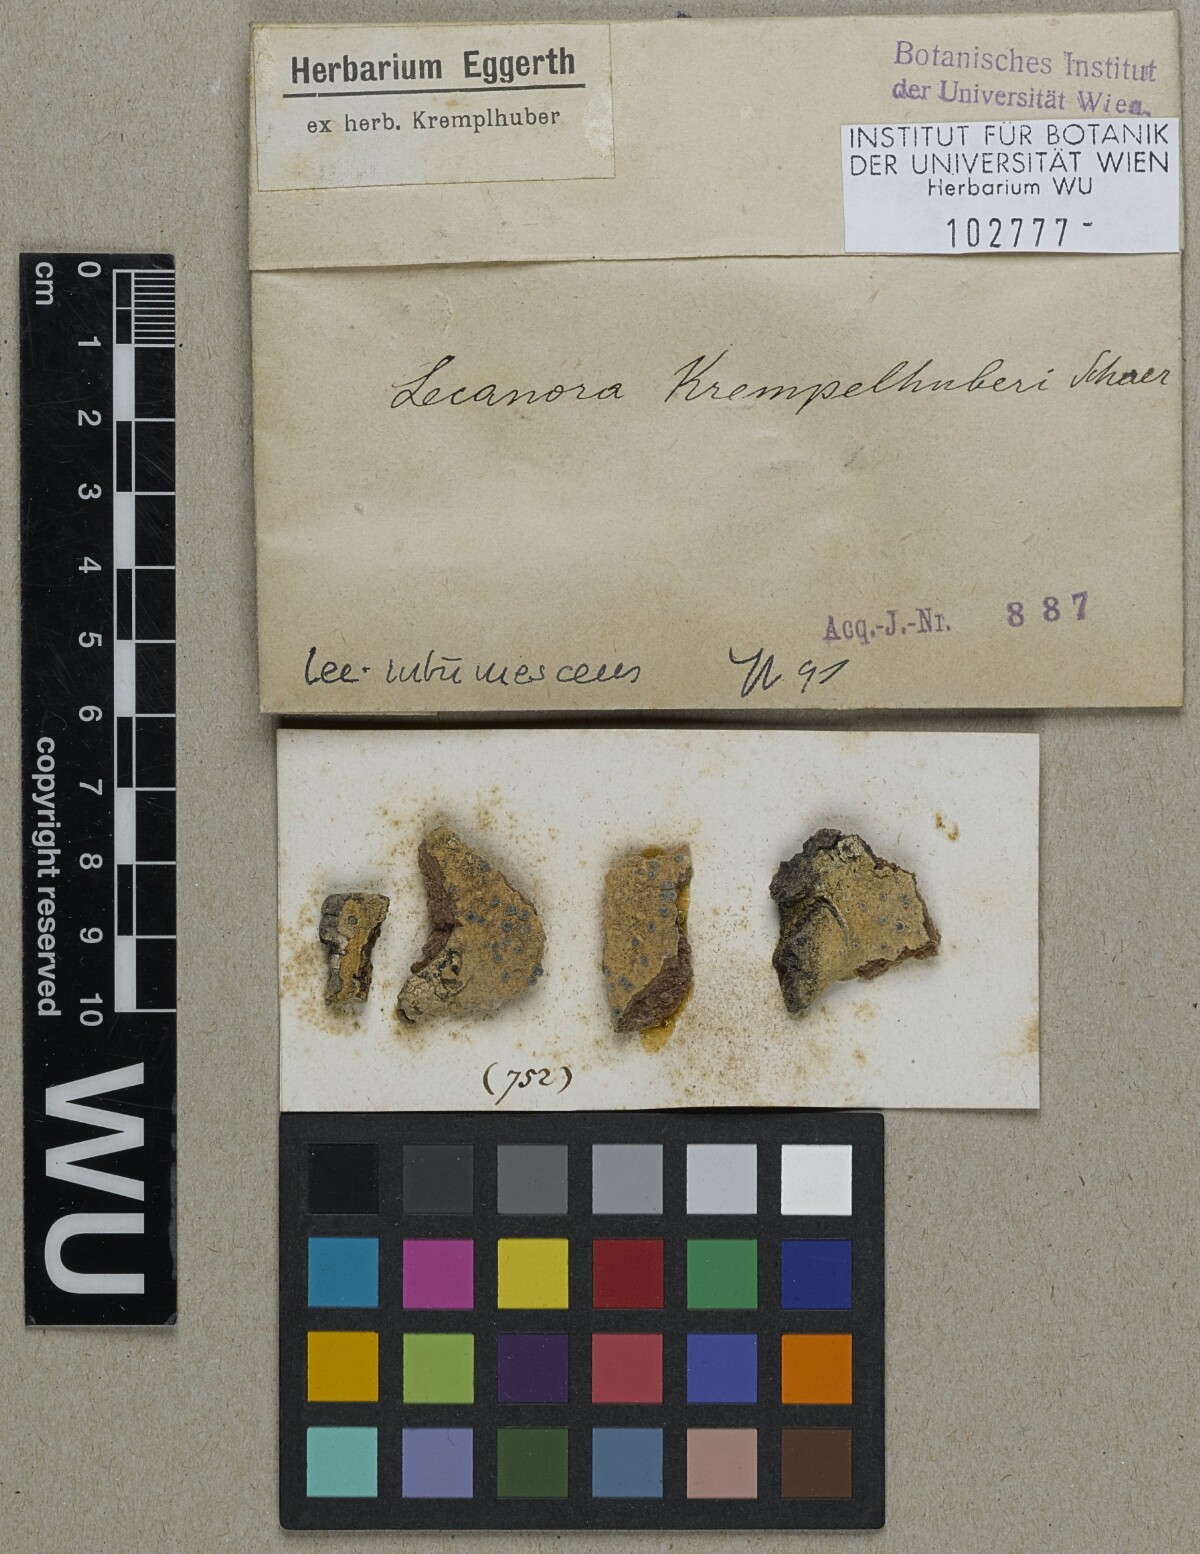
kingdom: Fungi
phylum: Ascomycota
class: Lecanoromycetes
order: Lecanorales
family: Lecanoraceae
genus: Lecanora
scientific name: Lecanora
